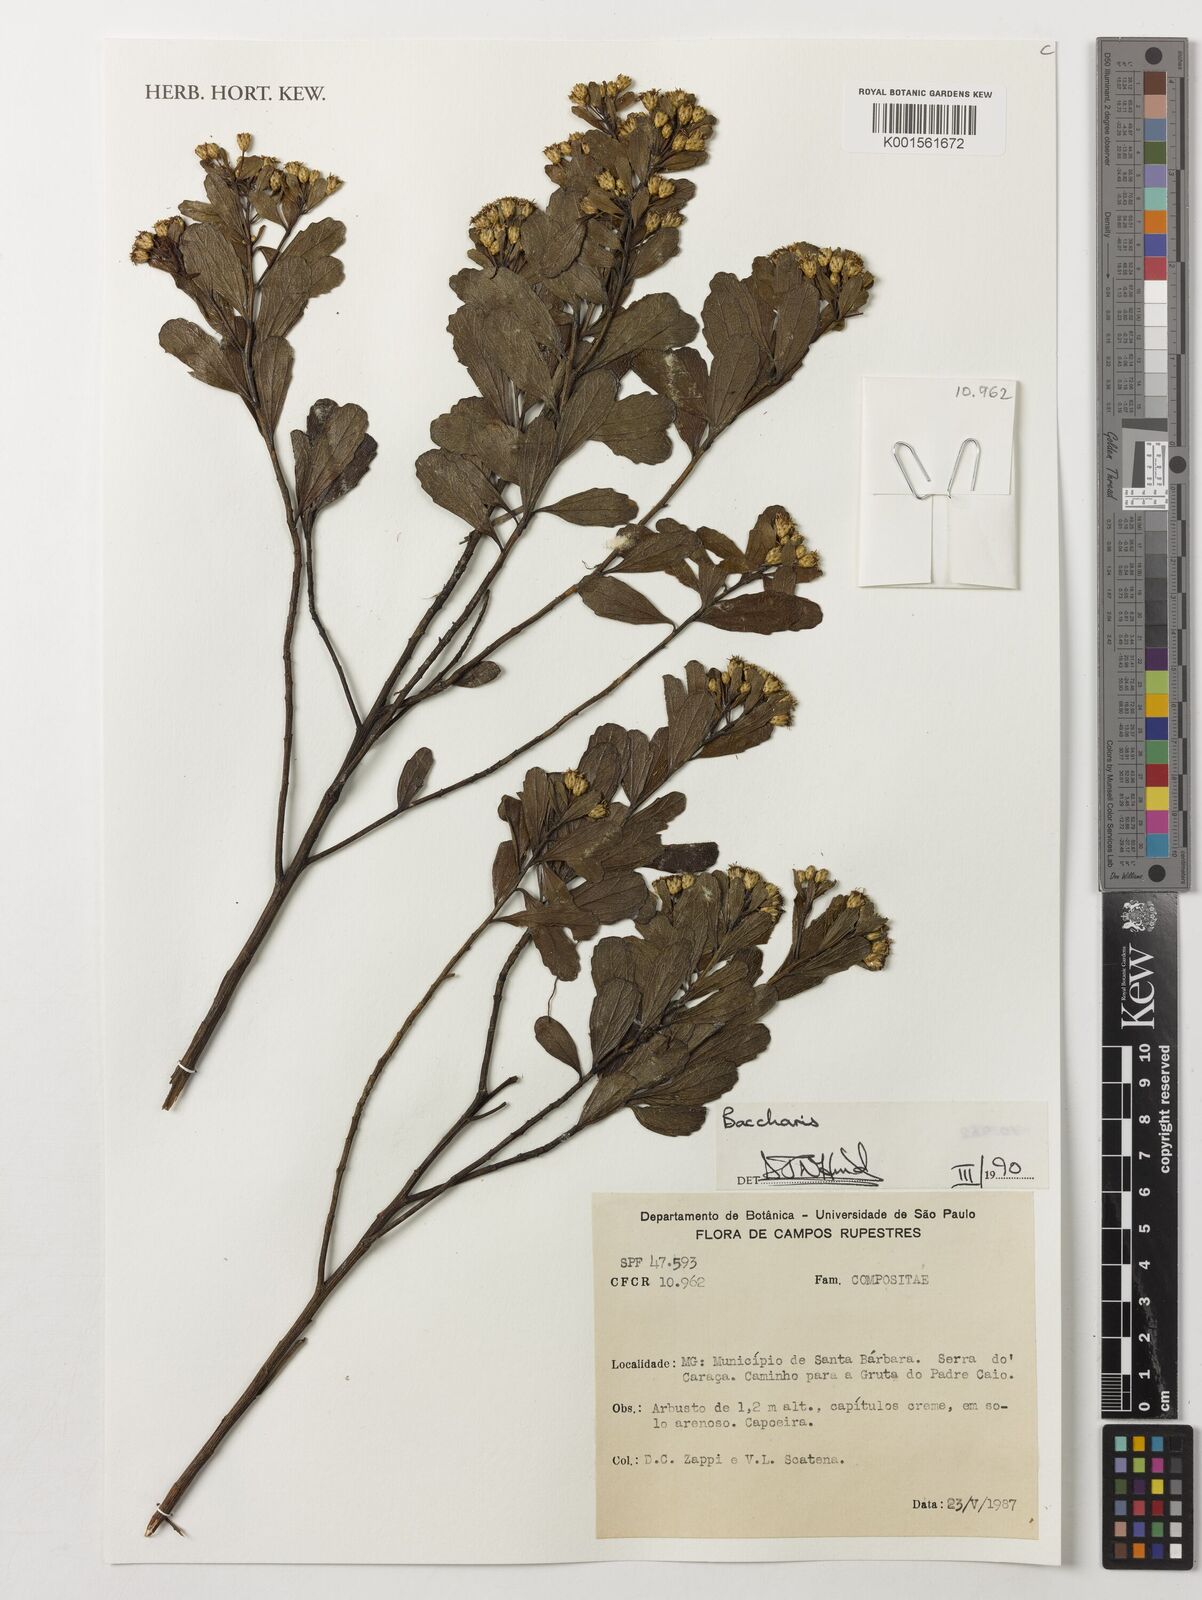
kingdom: Plantae
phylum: Tracheophyta
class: Magnoliopsida
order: Asterales
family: Asteraceae
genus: Baccharis
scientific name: Baccharis
